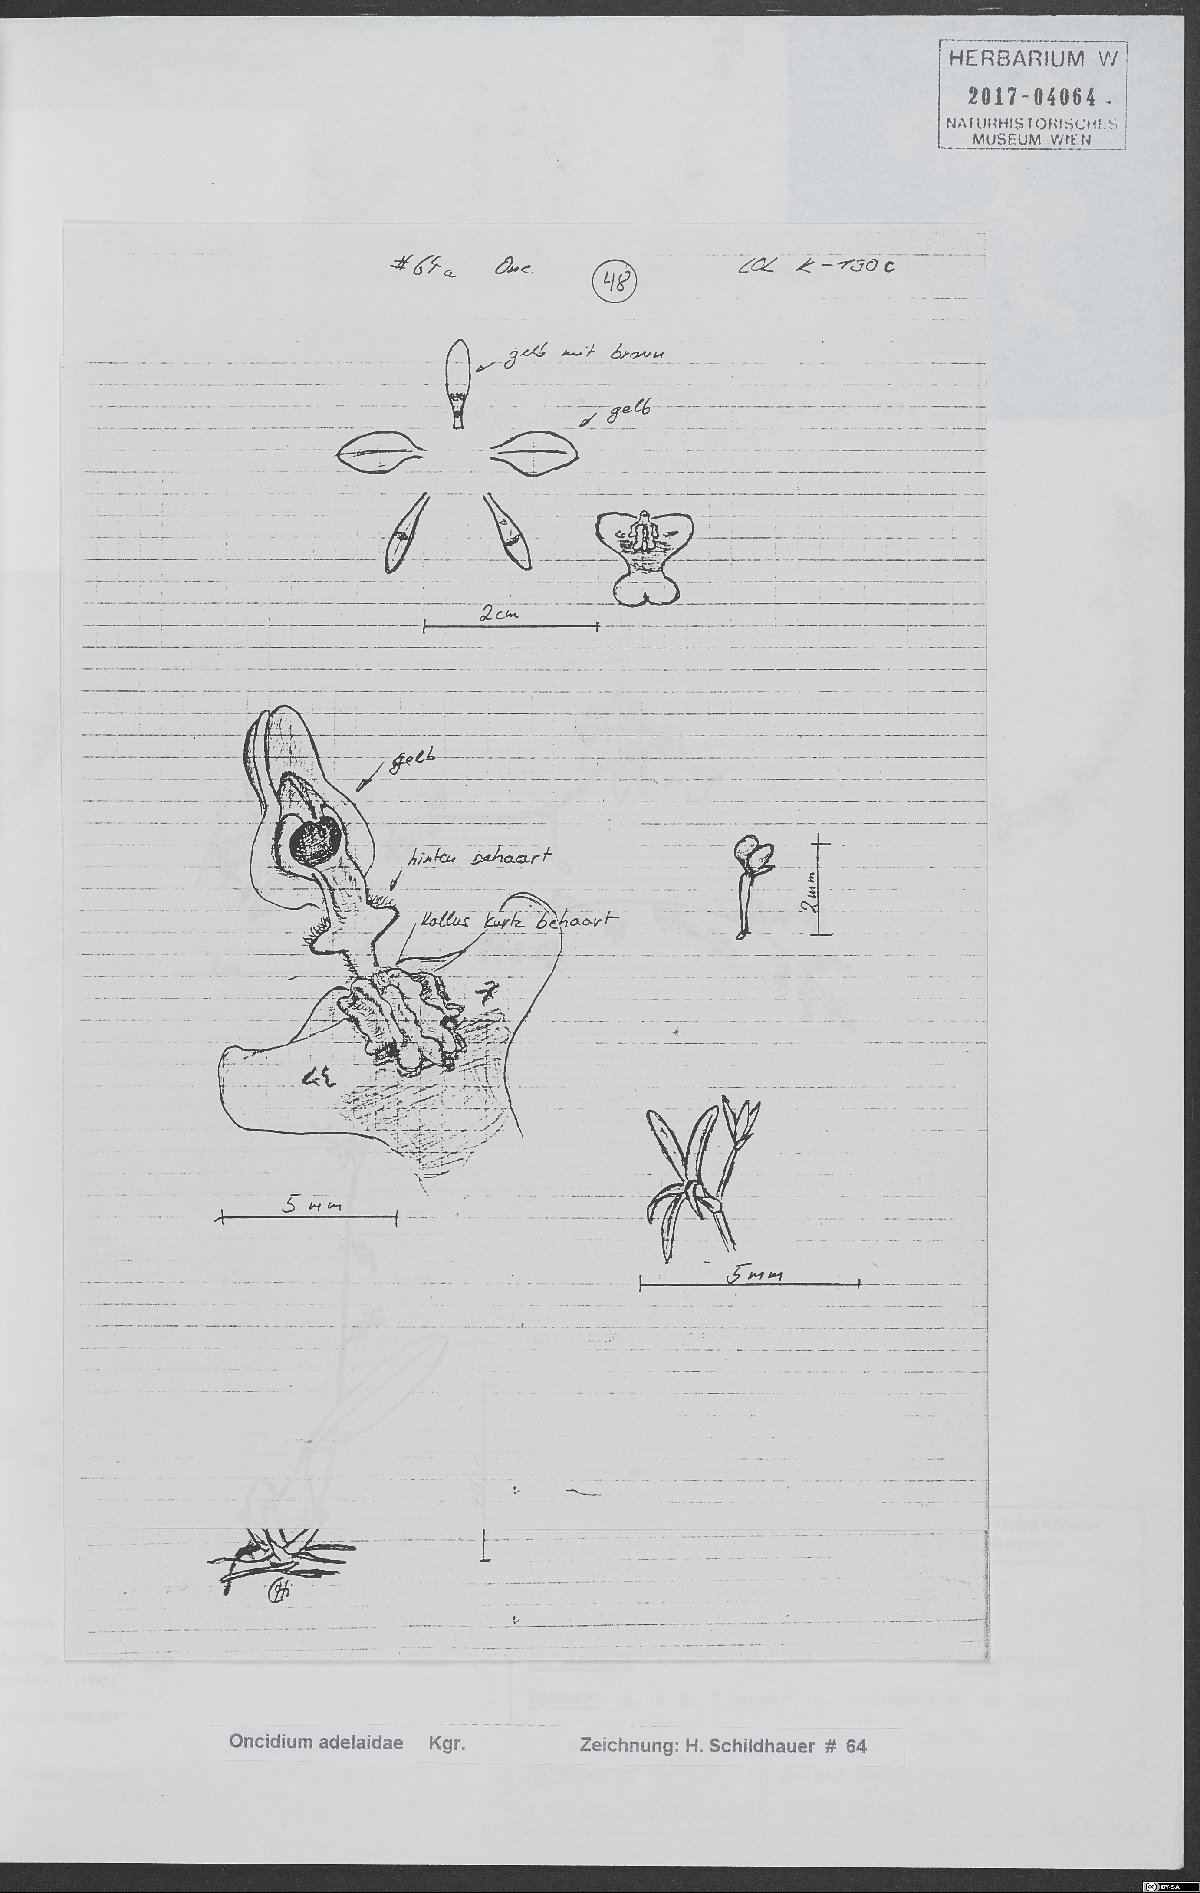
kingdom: Plantae
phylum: Tracheophyta
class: Liliopsida
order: Asparagales
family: Orchidaceae
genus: Oncidium
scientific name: Oncidium adelaidae
